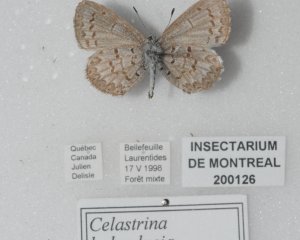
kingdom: Animalia
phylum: Arthropoda
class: Insecta
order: Lepidoptera
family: Lycaenidae
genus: Celastrina
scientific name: Celastrina lucia
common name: Northern Spring Azure
